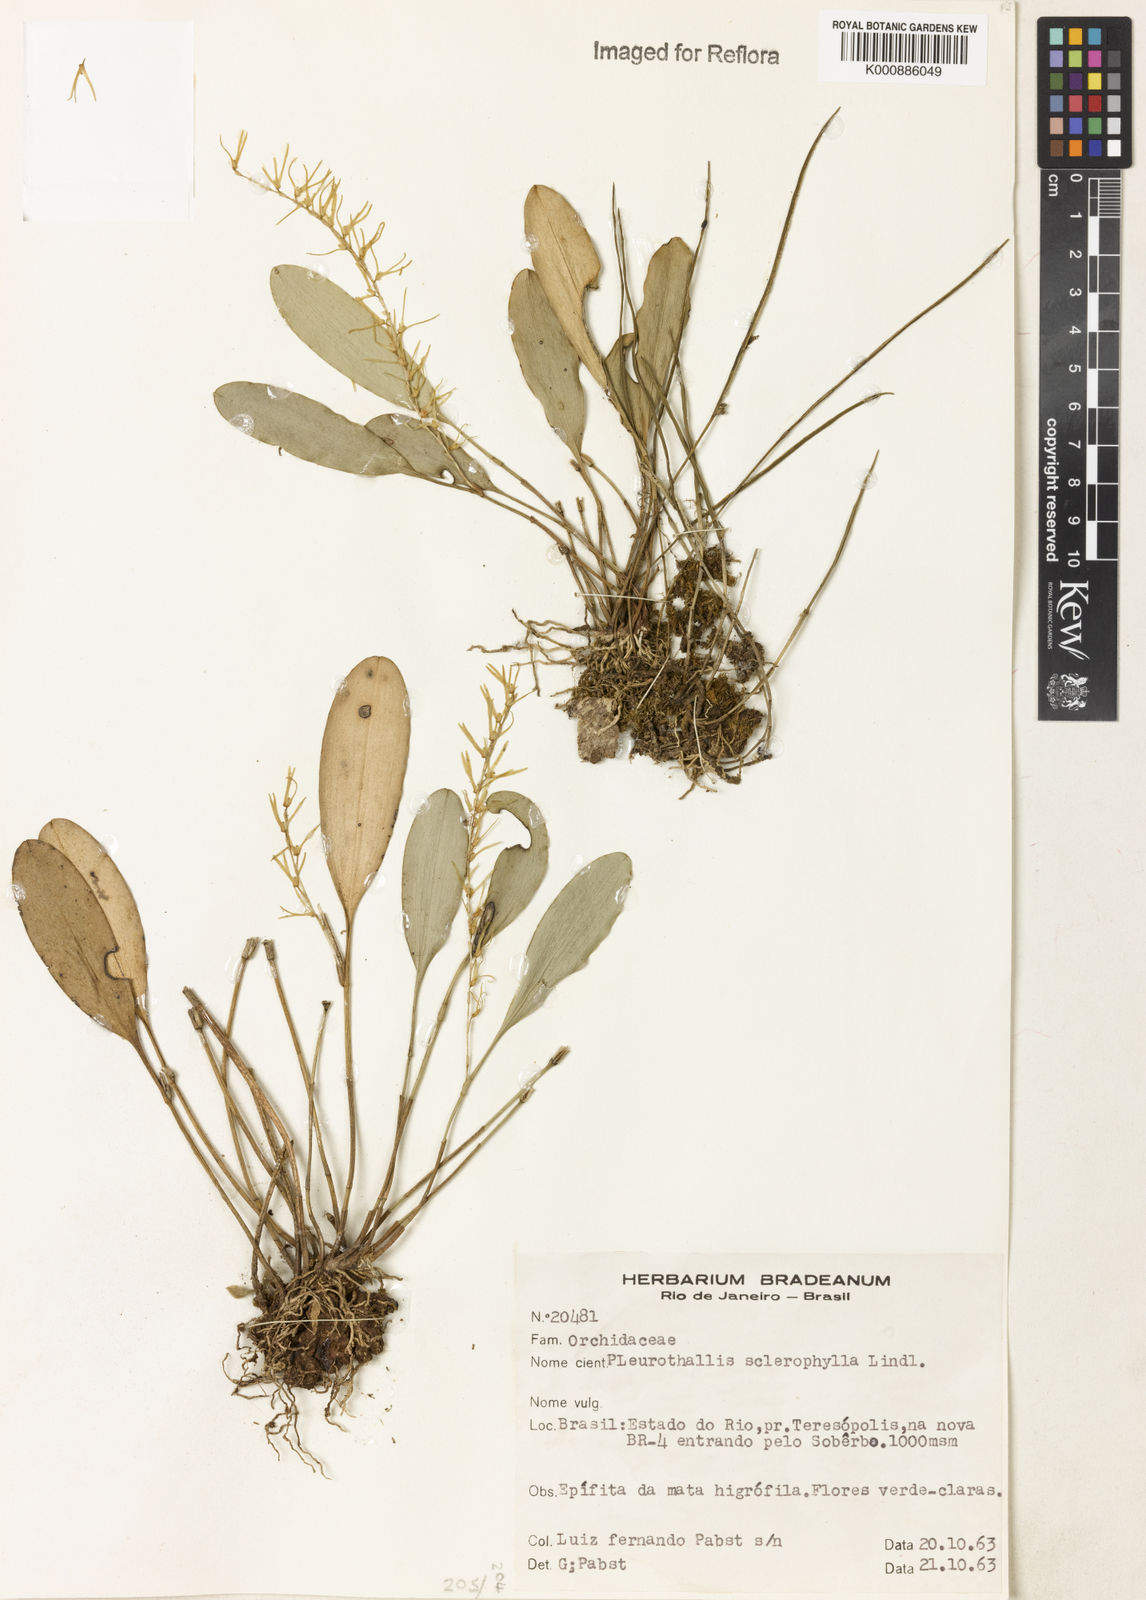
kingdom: Plantae
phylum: Tracheophyta
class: Liliopsida
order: Asparagales
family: Orchidaceae
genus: Stelis
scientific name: Stelis sclerophylla
